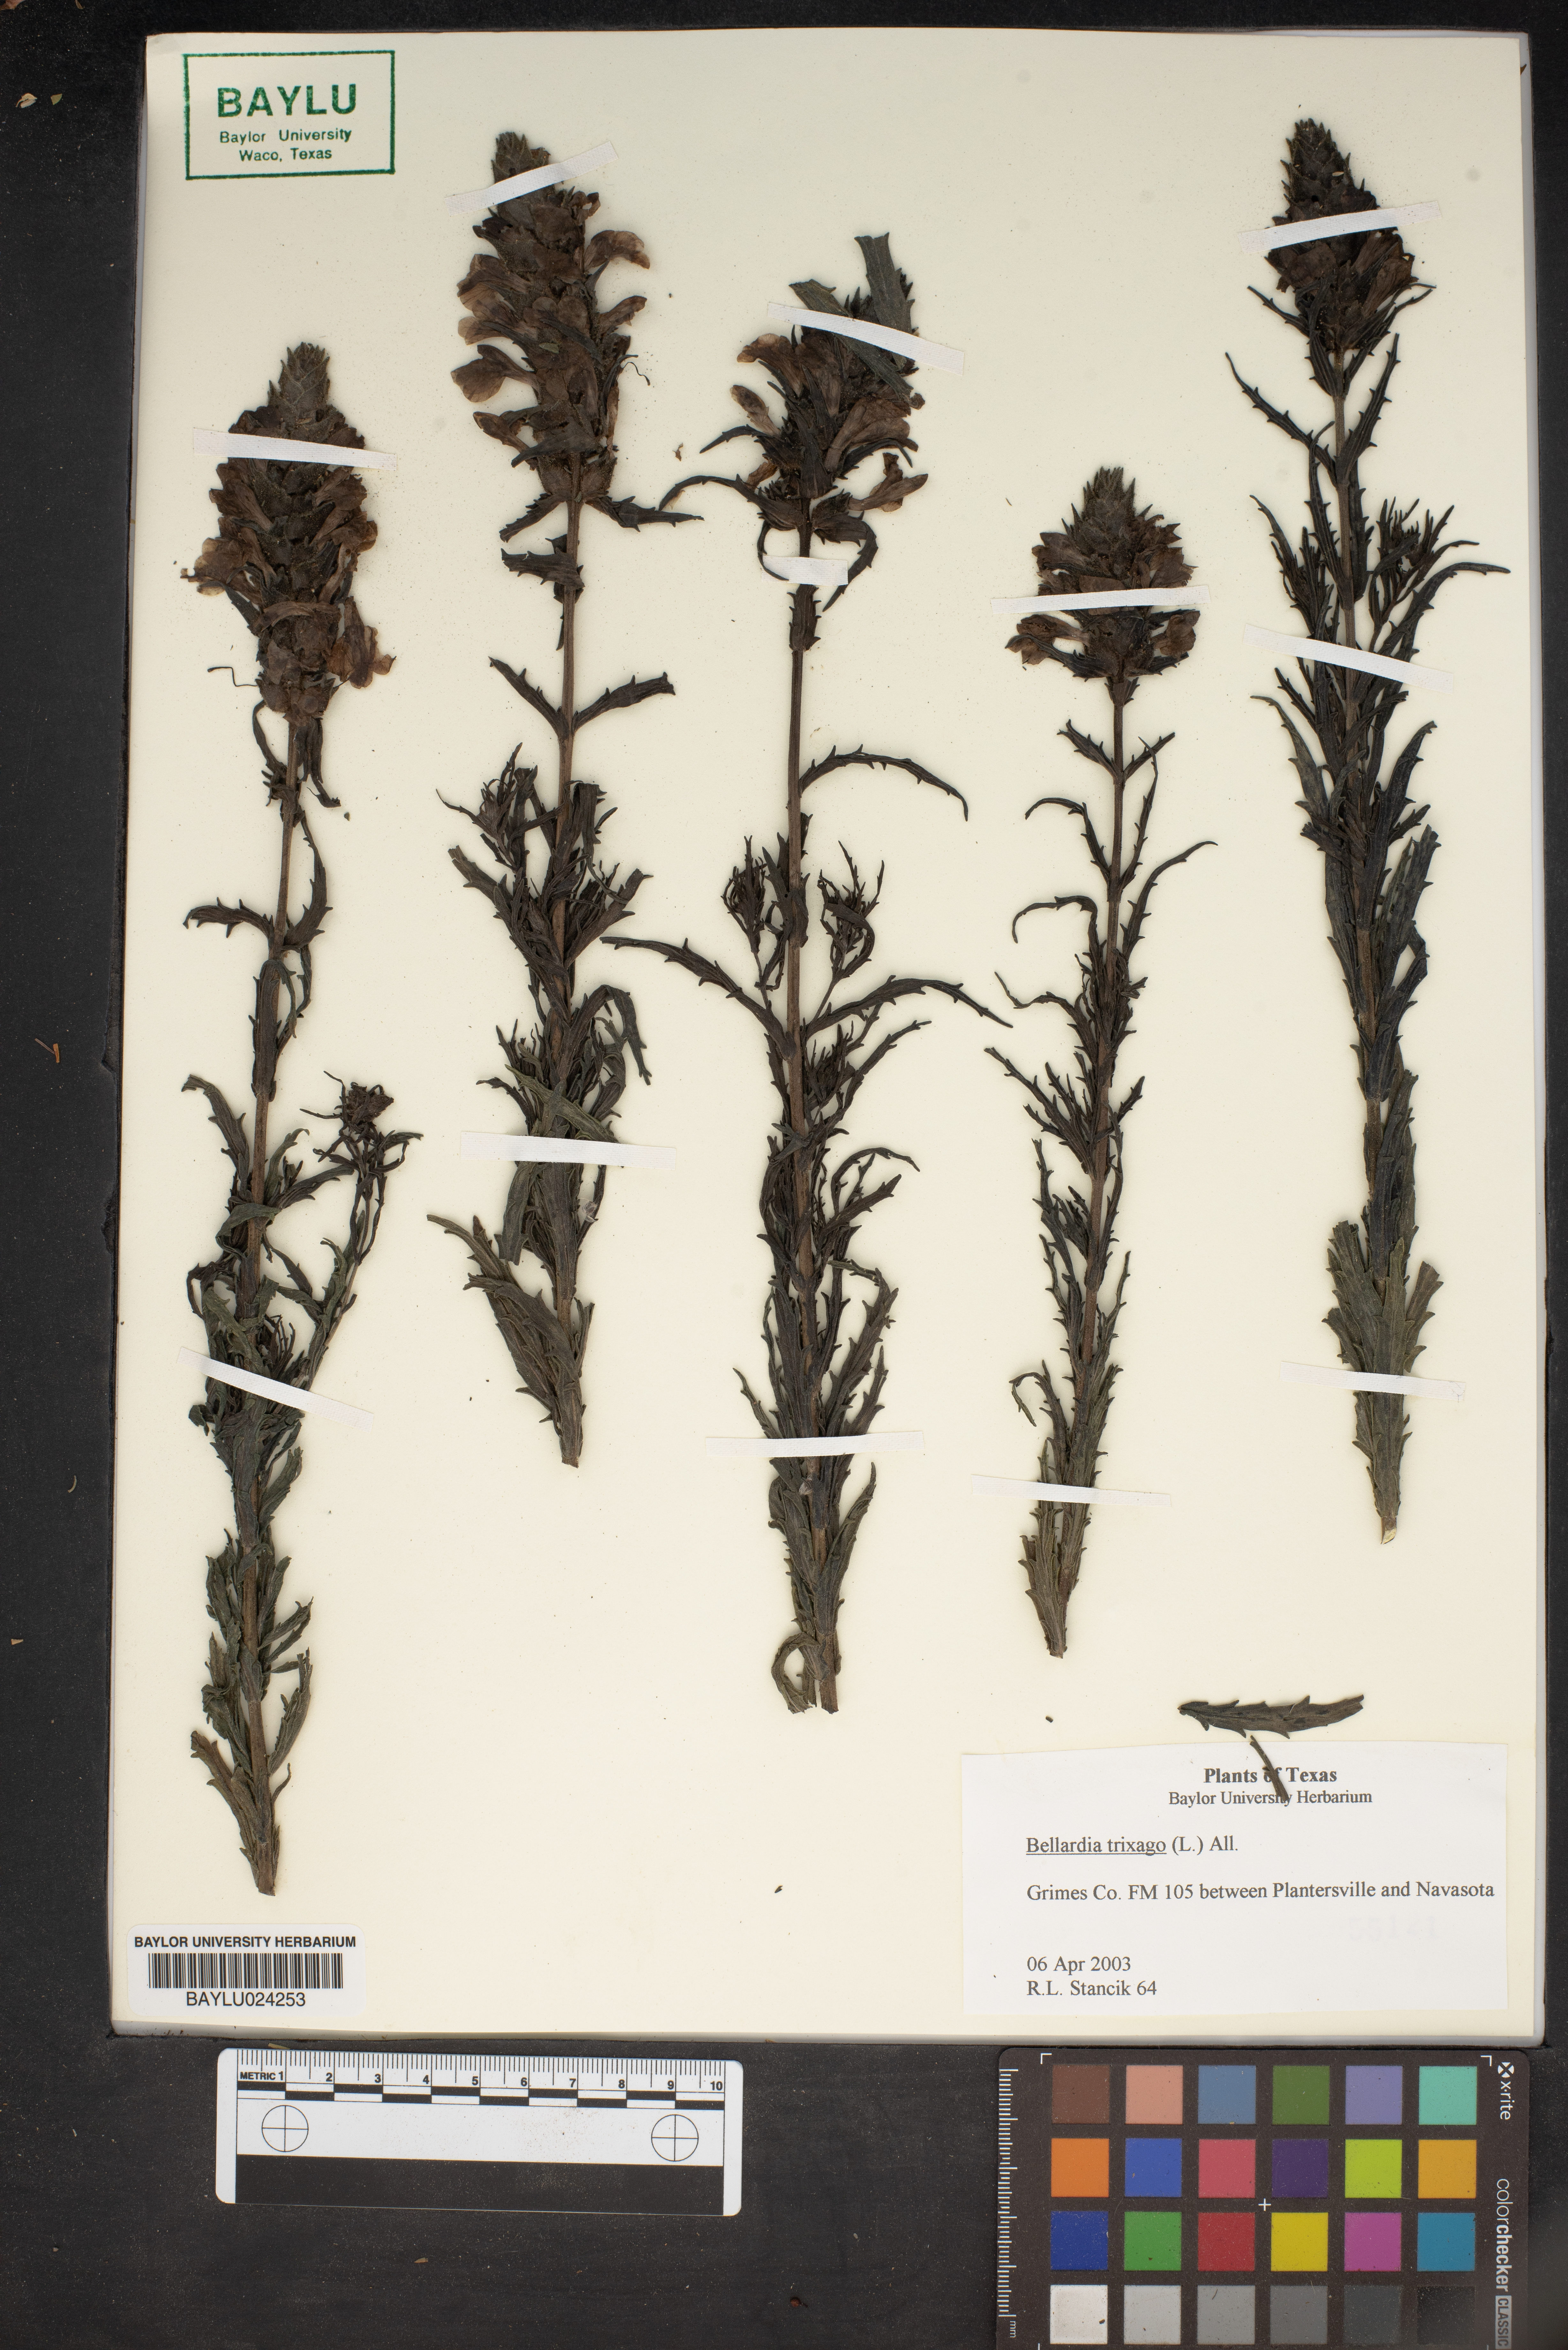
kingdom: Plantae
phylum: Tracheophyta
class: Magnoliopsida
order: Lamiales
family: Orobanchaceae
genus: Bellardia
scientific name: Bellardia trixago
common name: Mediterranean lineseed
